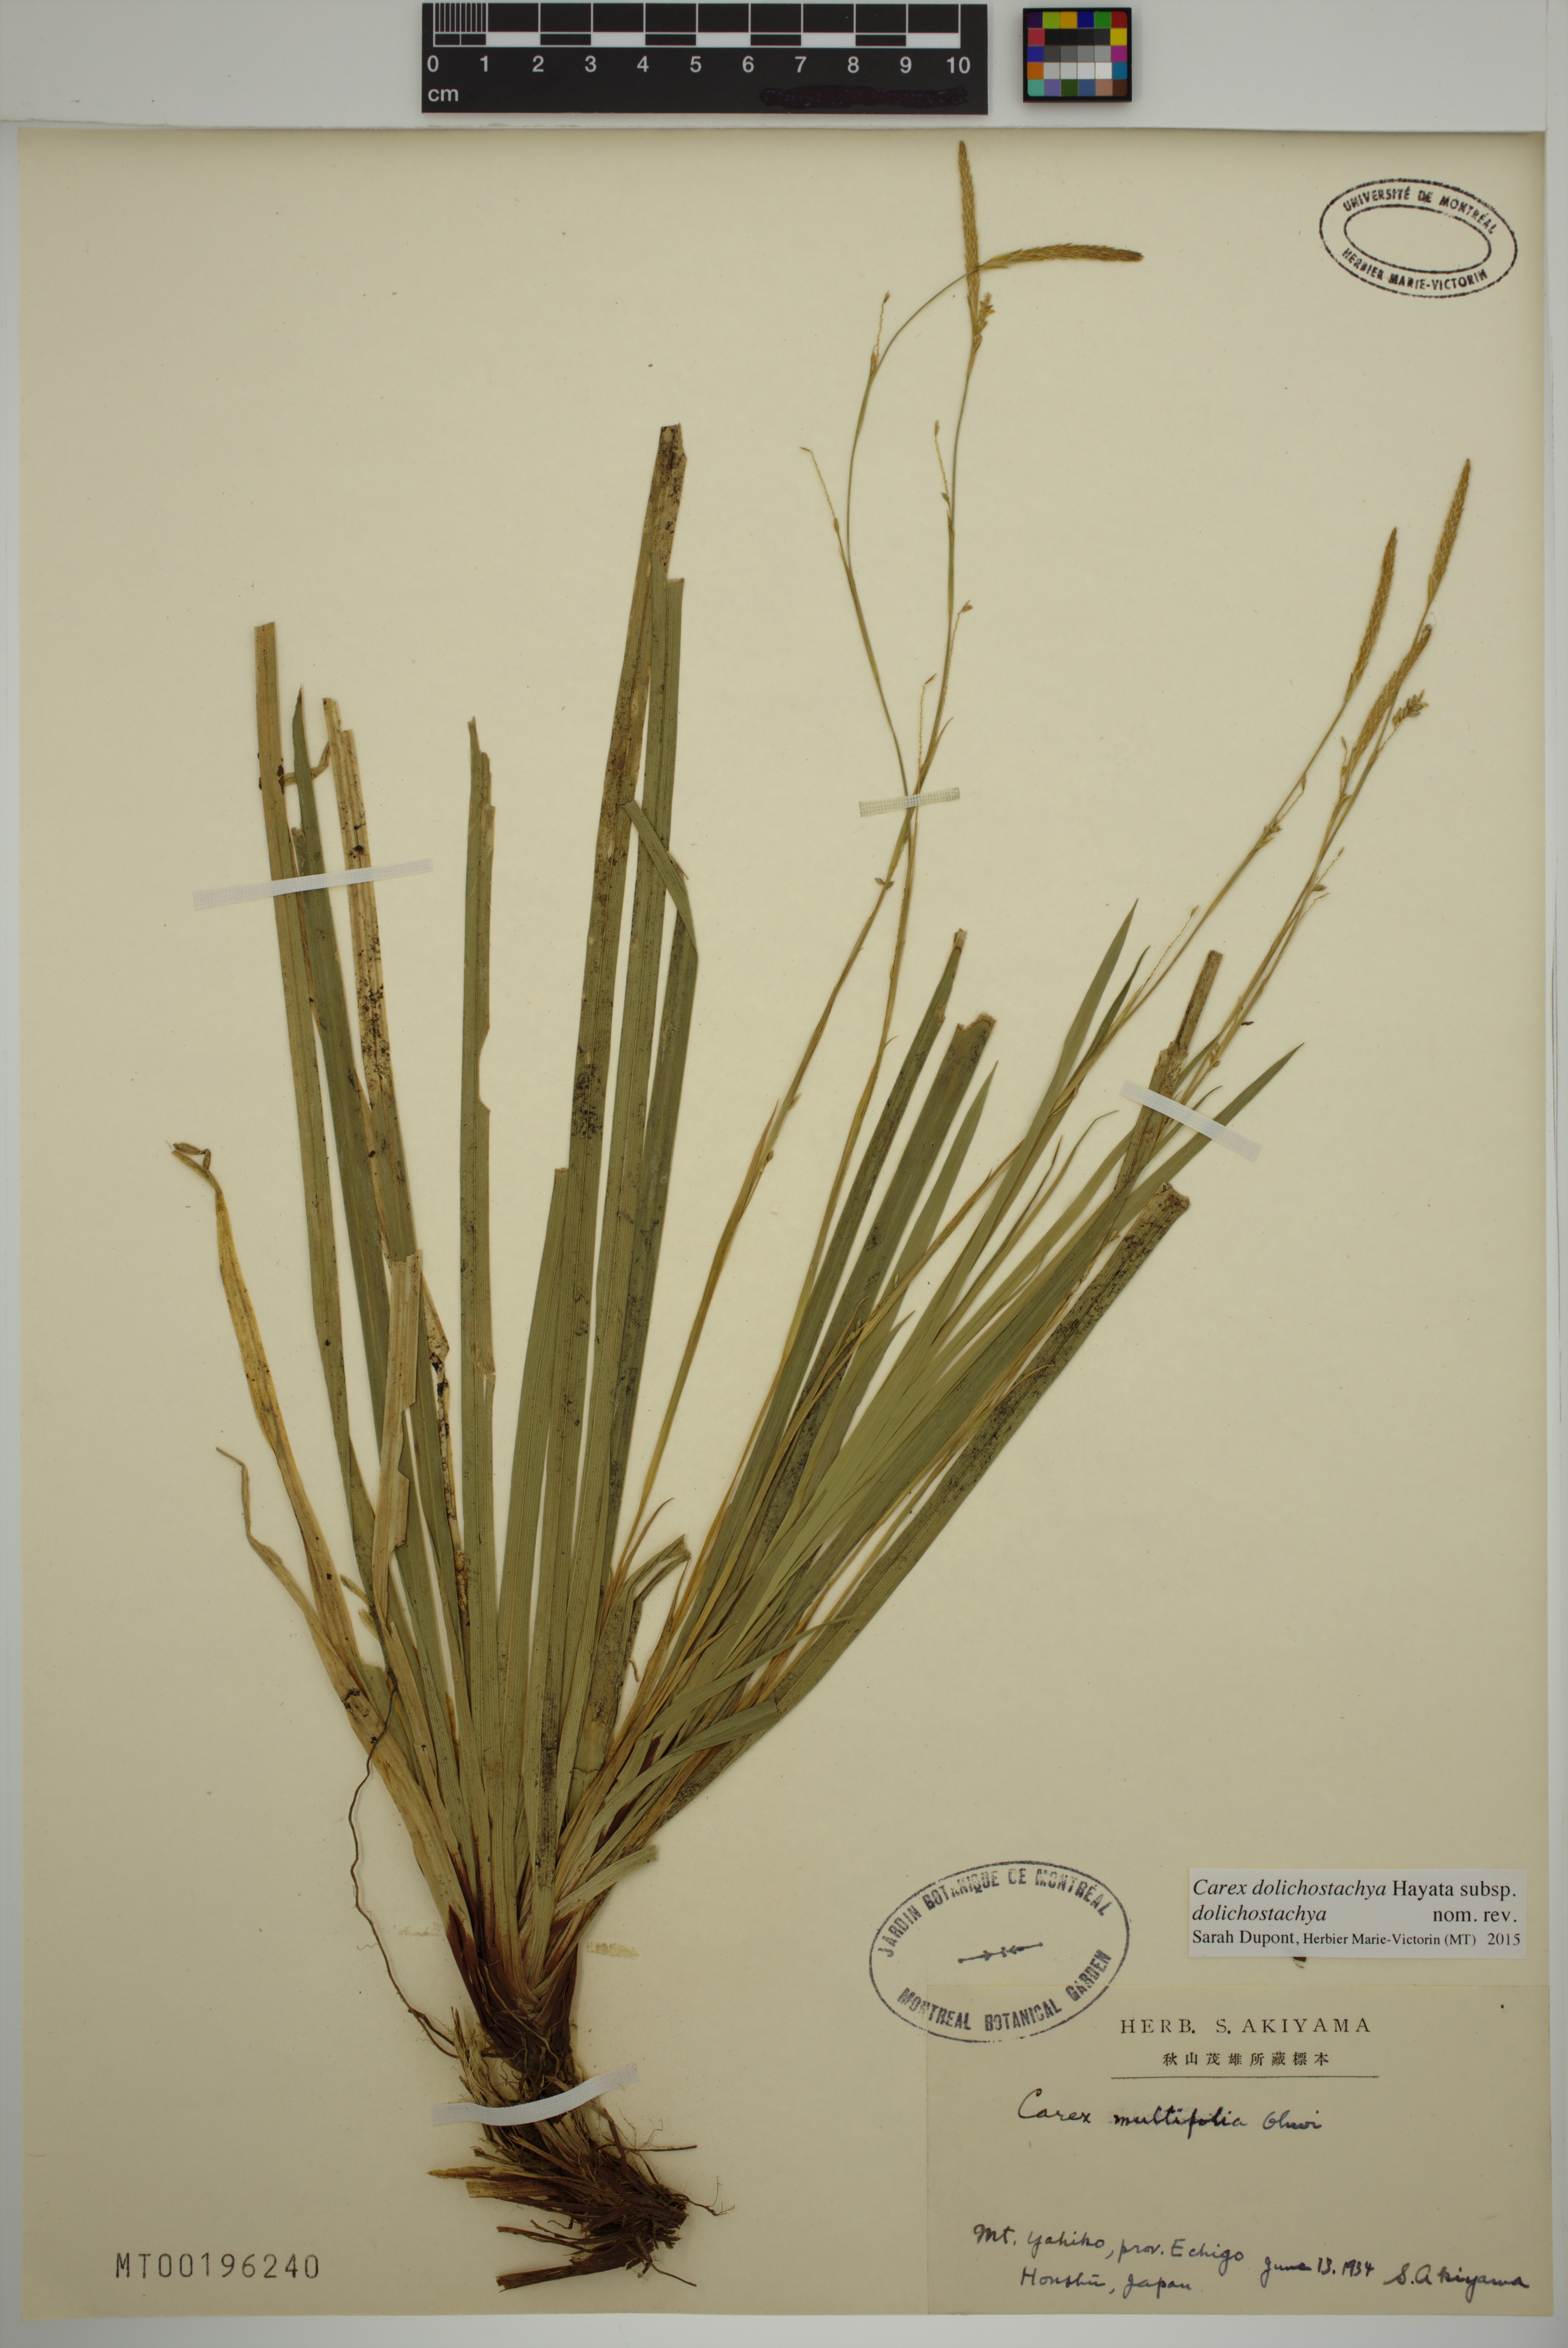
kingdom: Plantae
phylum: Tracheophyta
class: Liliopsida
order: Poales
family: Cyperaceae
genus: Carex
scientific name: Carex dolichostachya
